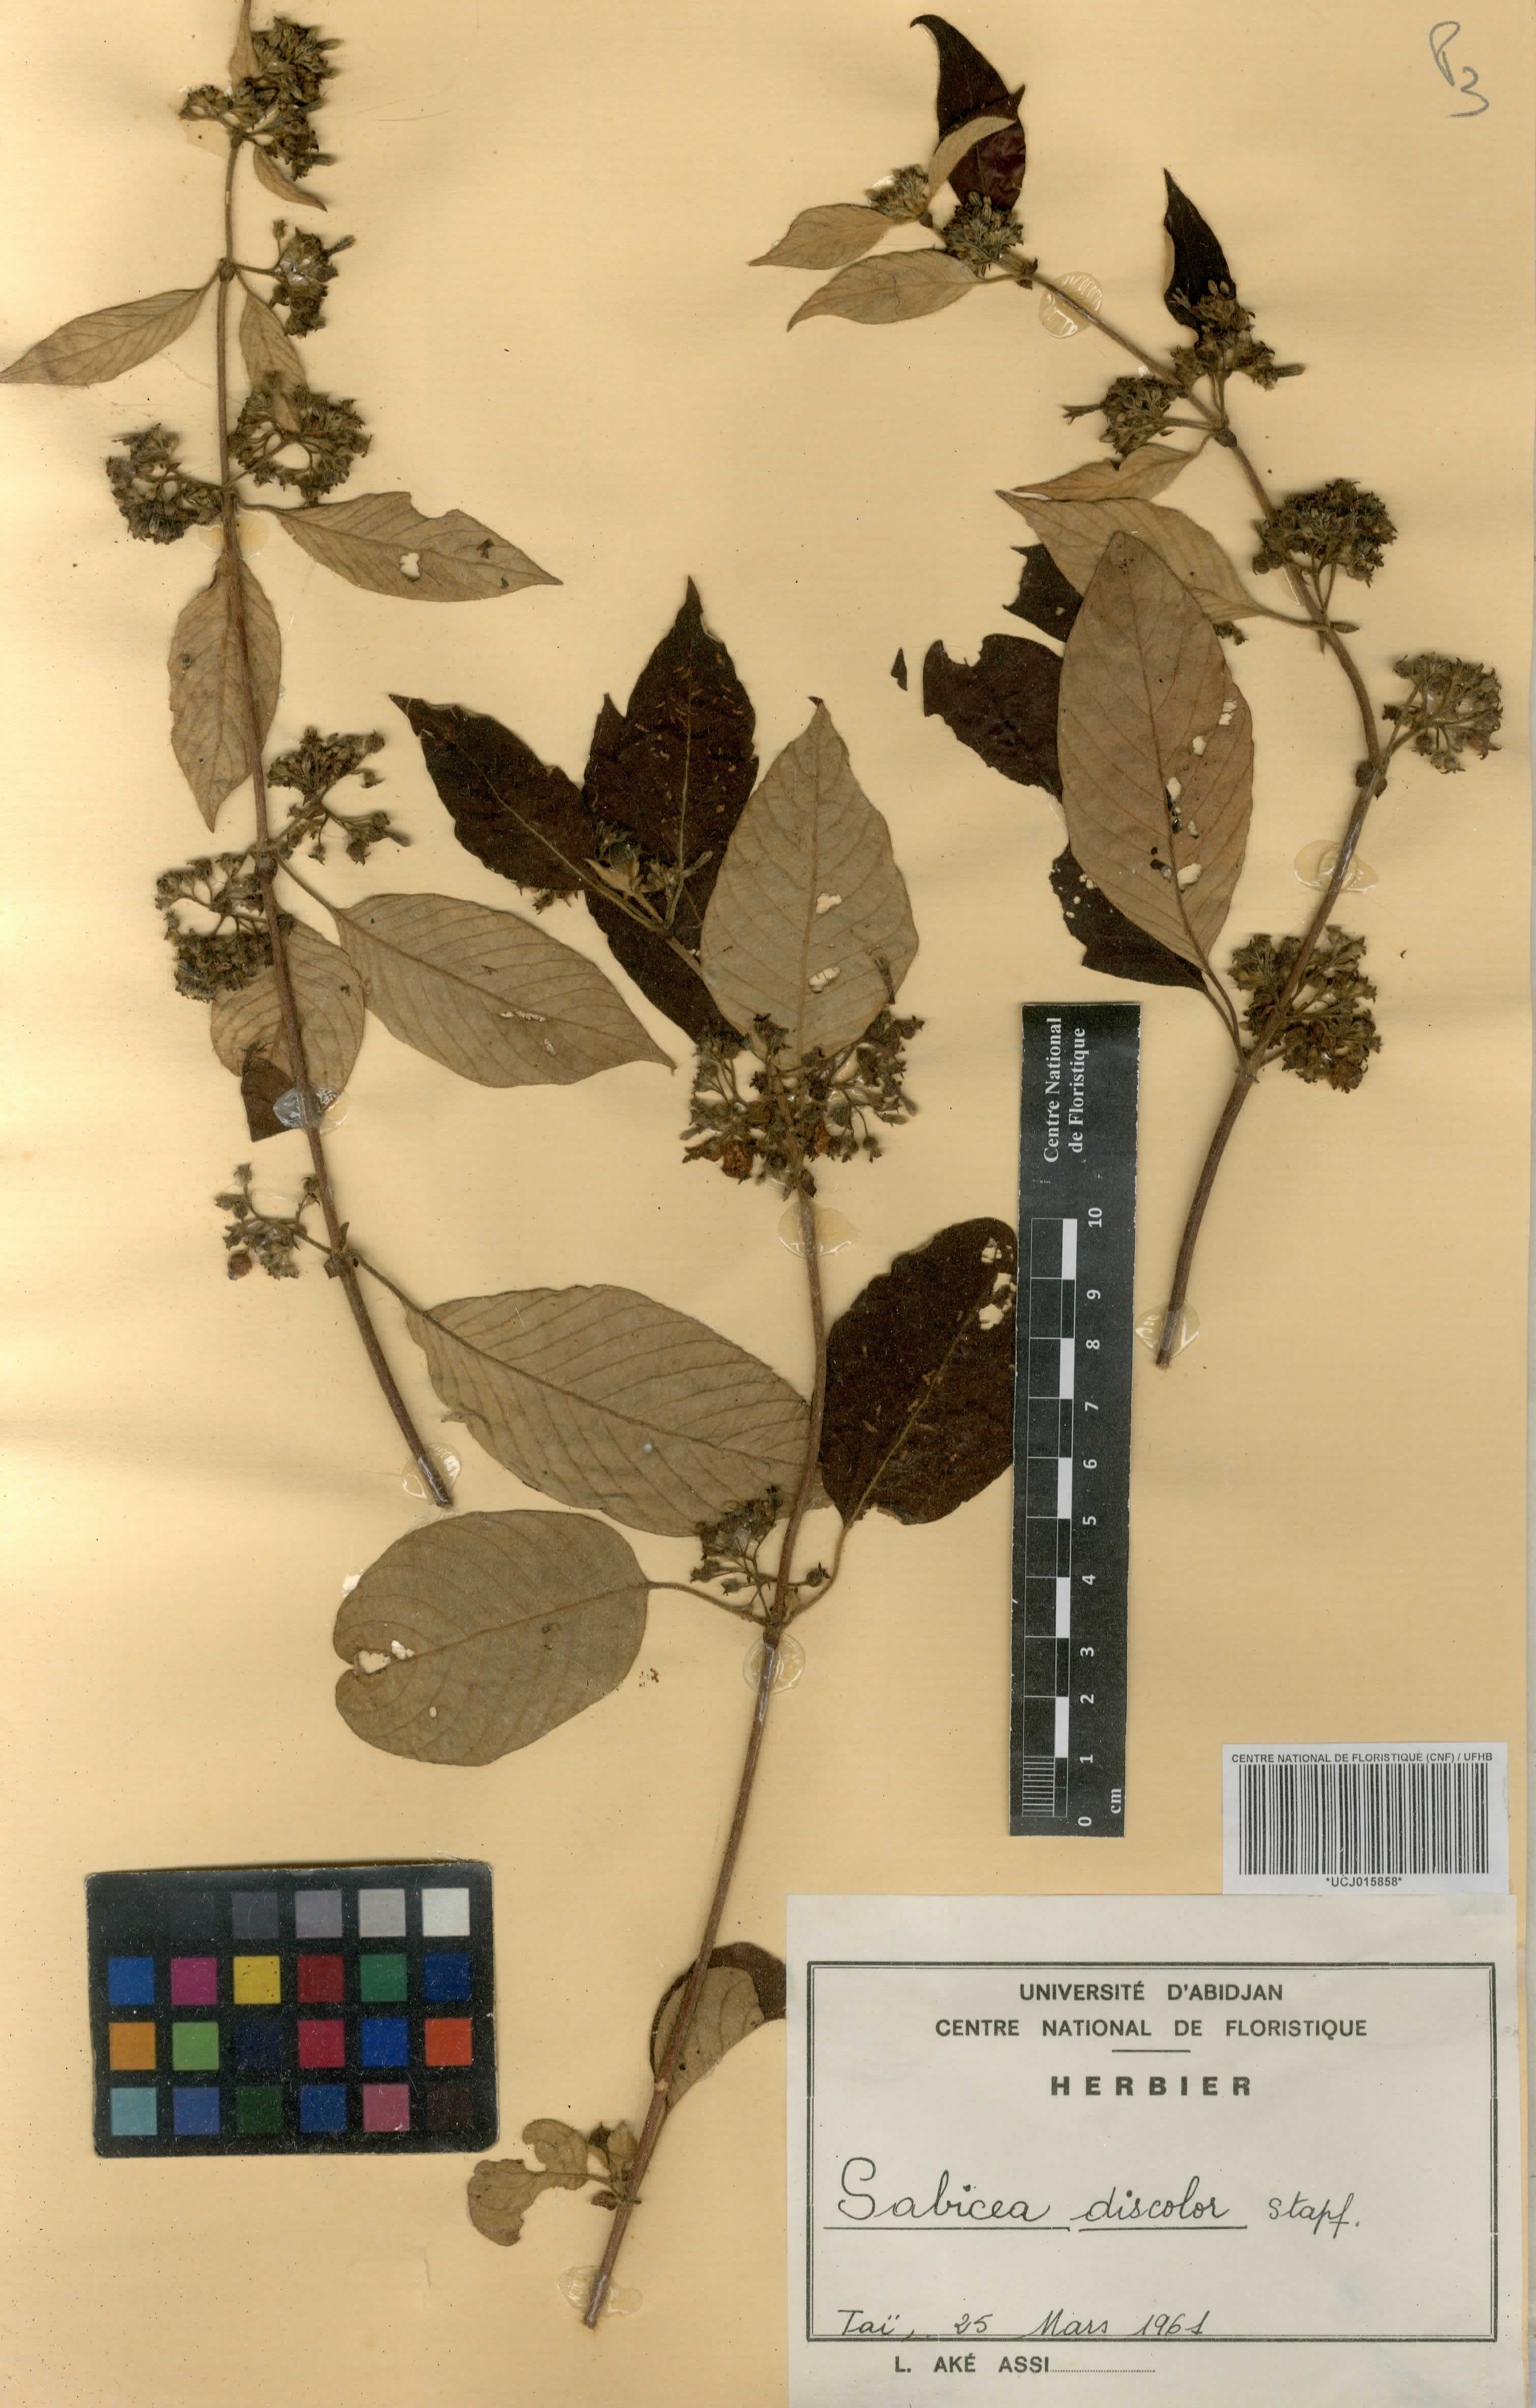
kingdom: Plantae
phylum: Tracheophyta
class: Magnoliopsida
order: Gentianales
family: Rubiaceae
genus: Sabicea
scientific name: Sabicea discolor
